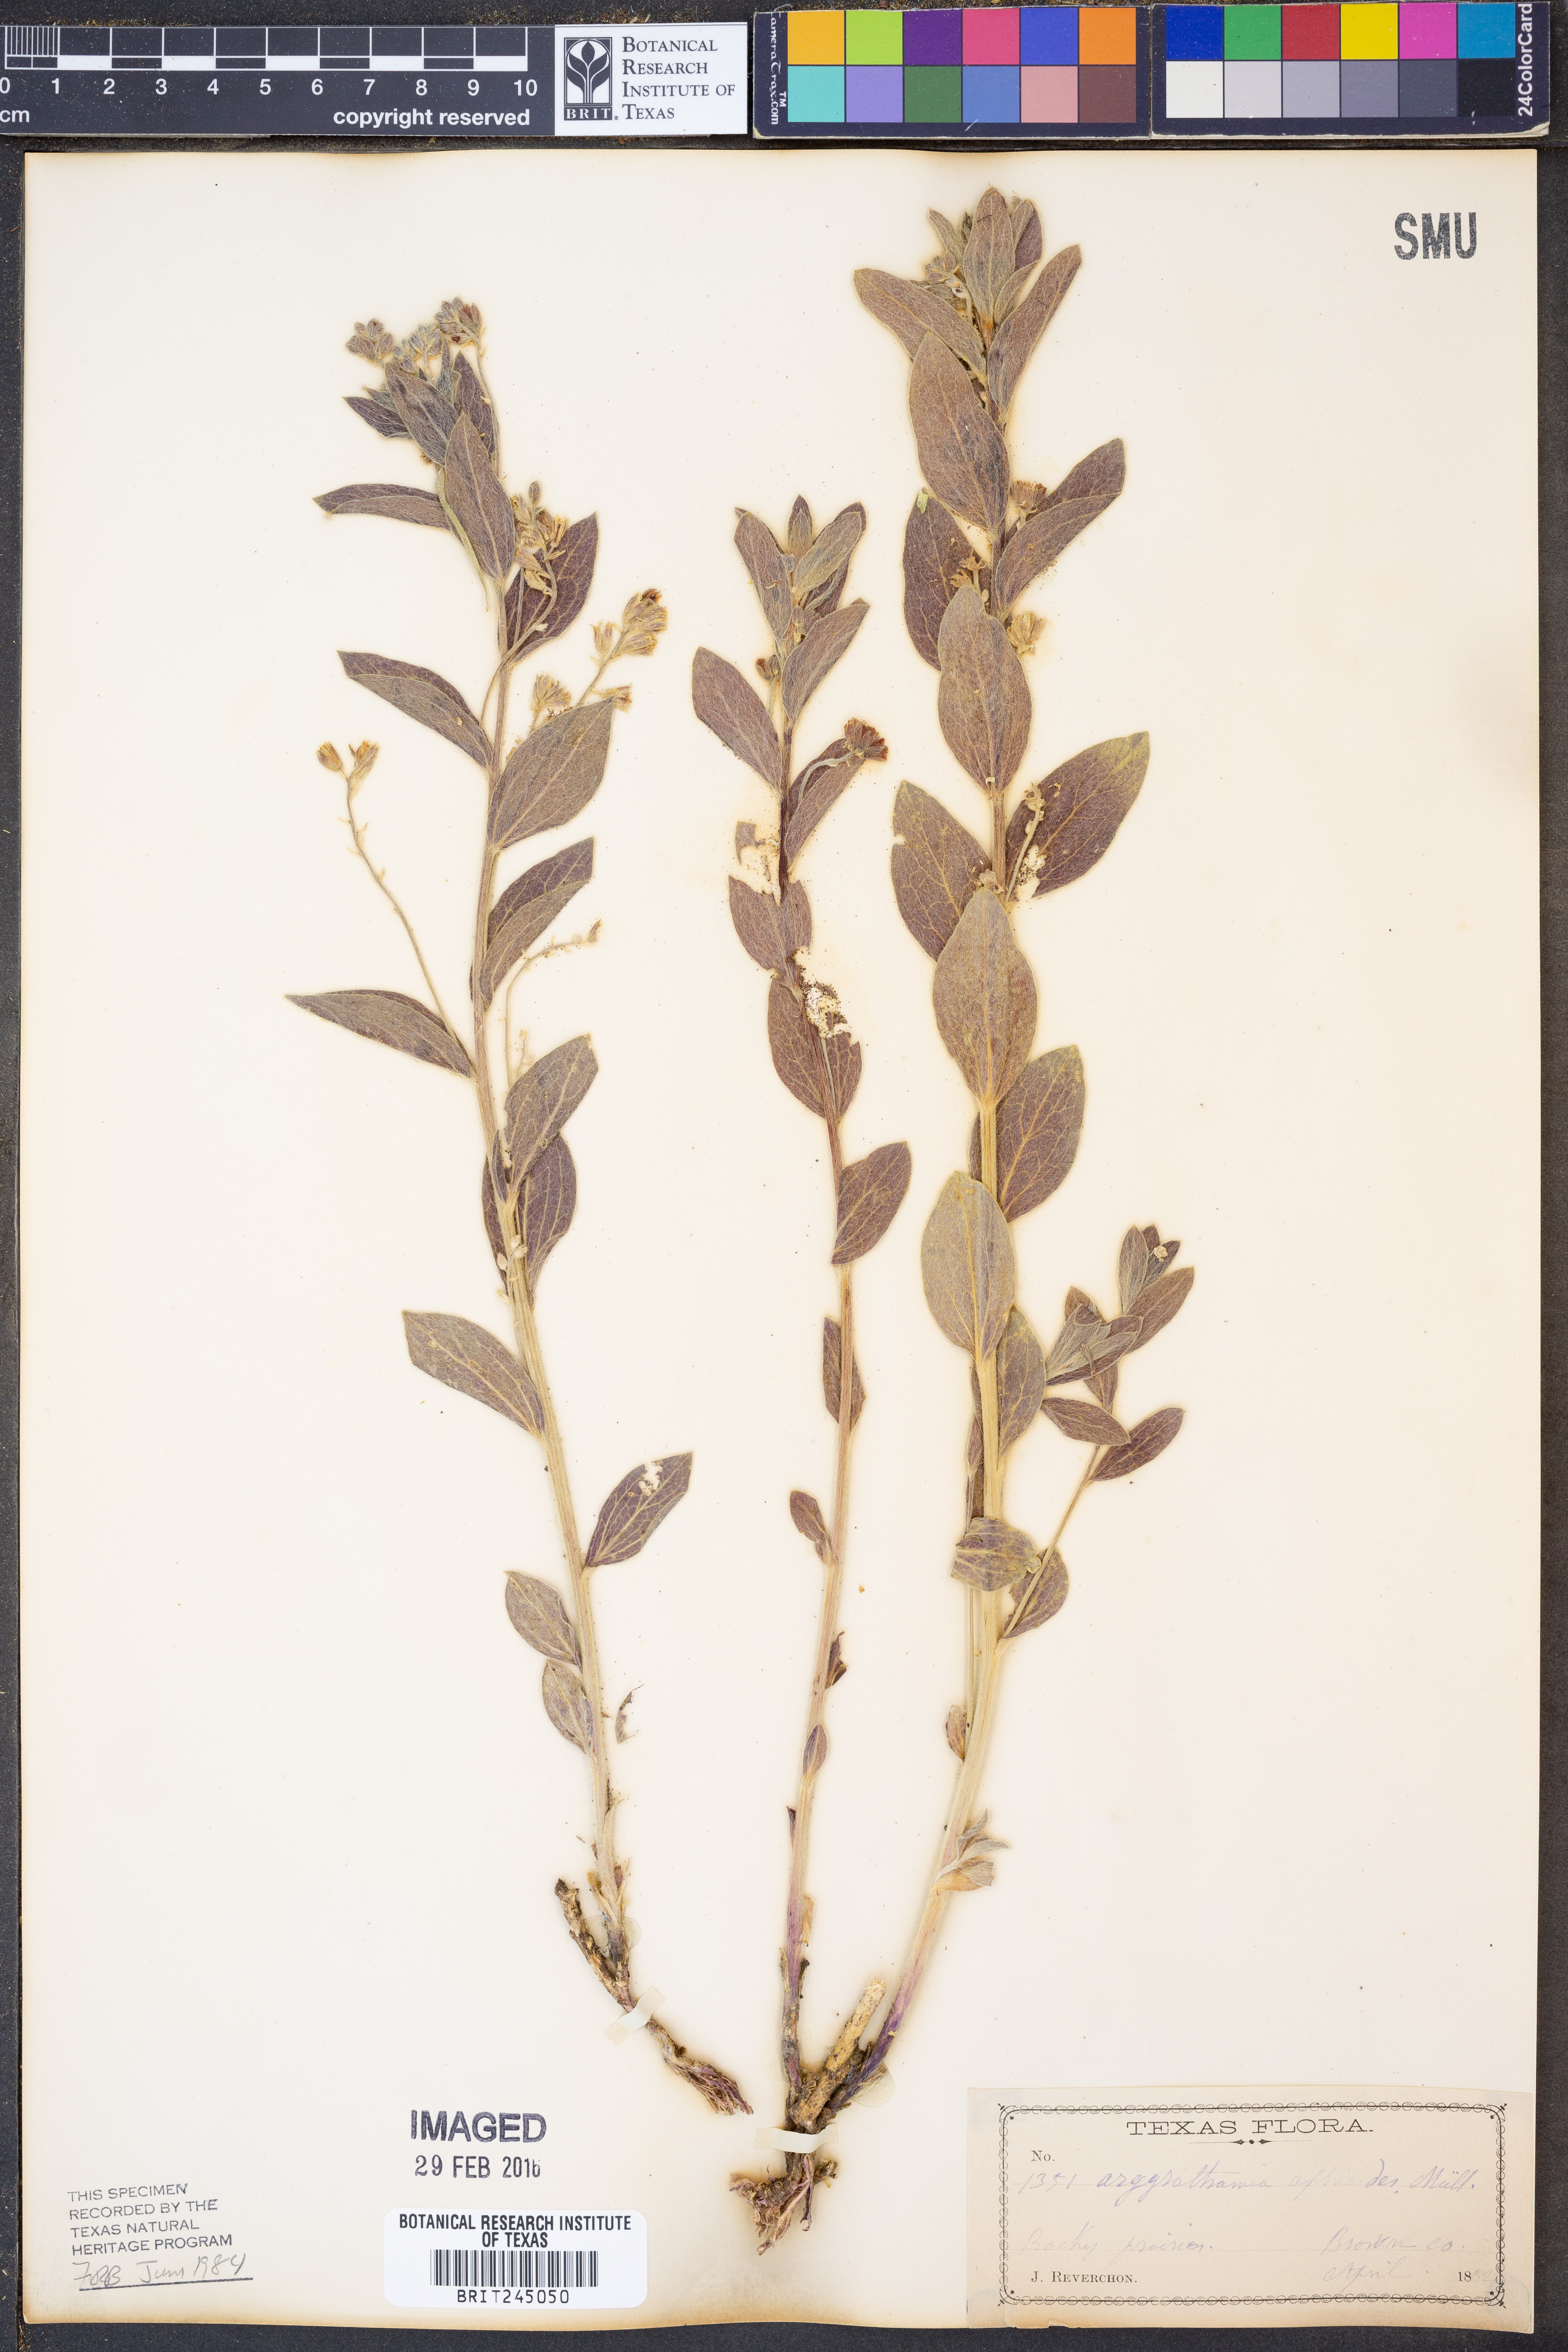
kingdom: Plantae
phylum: Tracheophyta
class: Magnoliopsida
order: Malpighiales
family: Euphorbiaceae
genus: Ditaxis
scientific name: Ditaxis aphoroides
